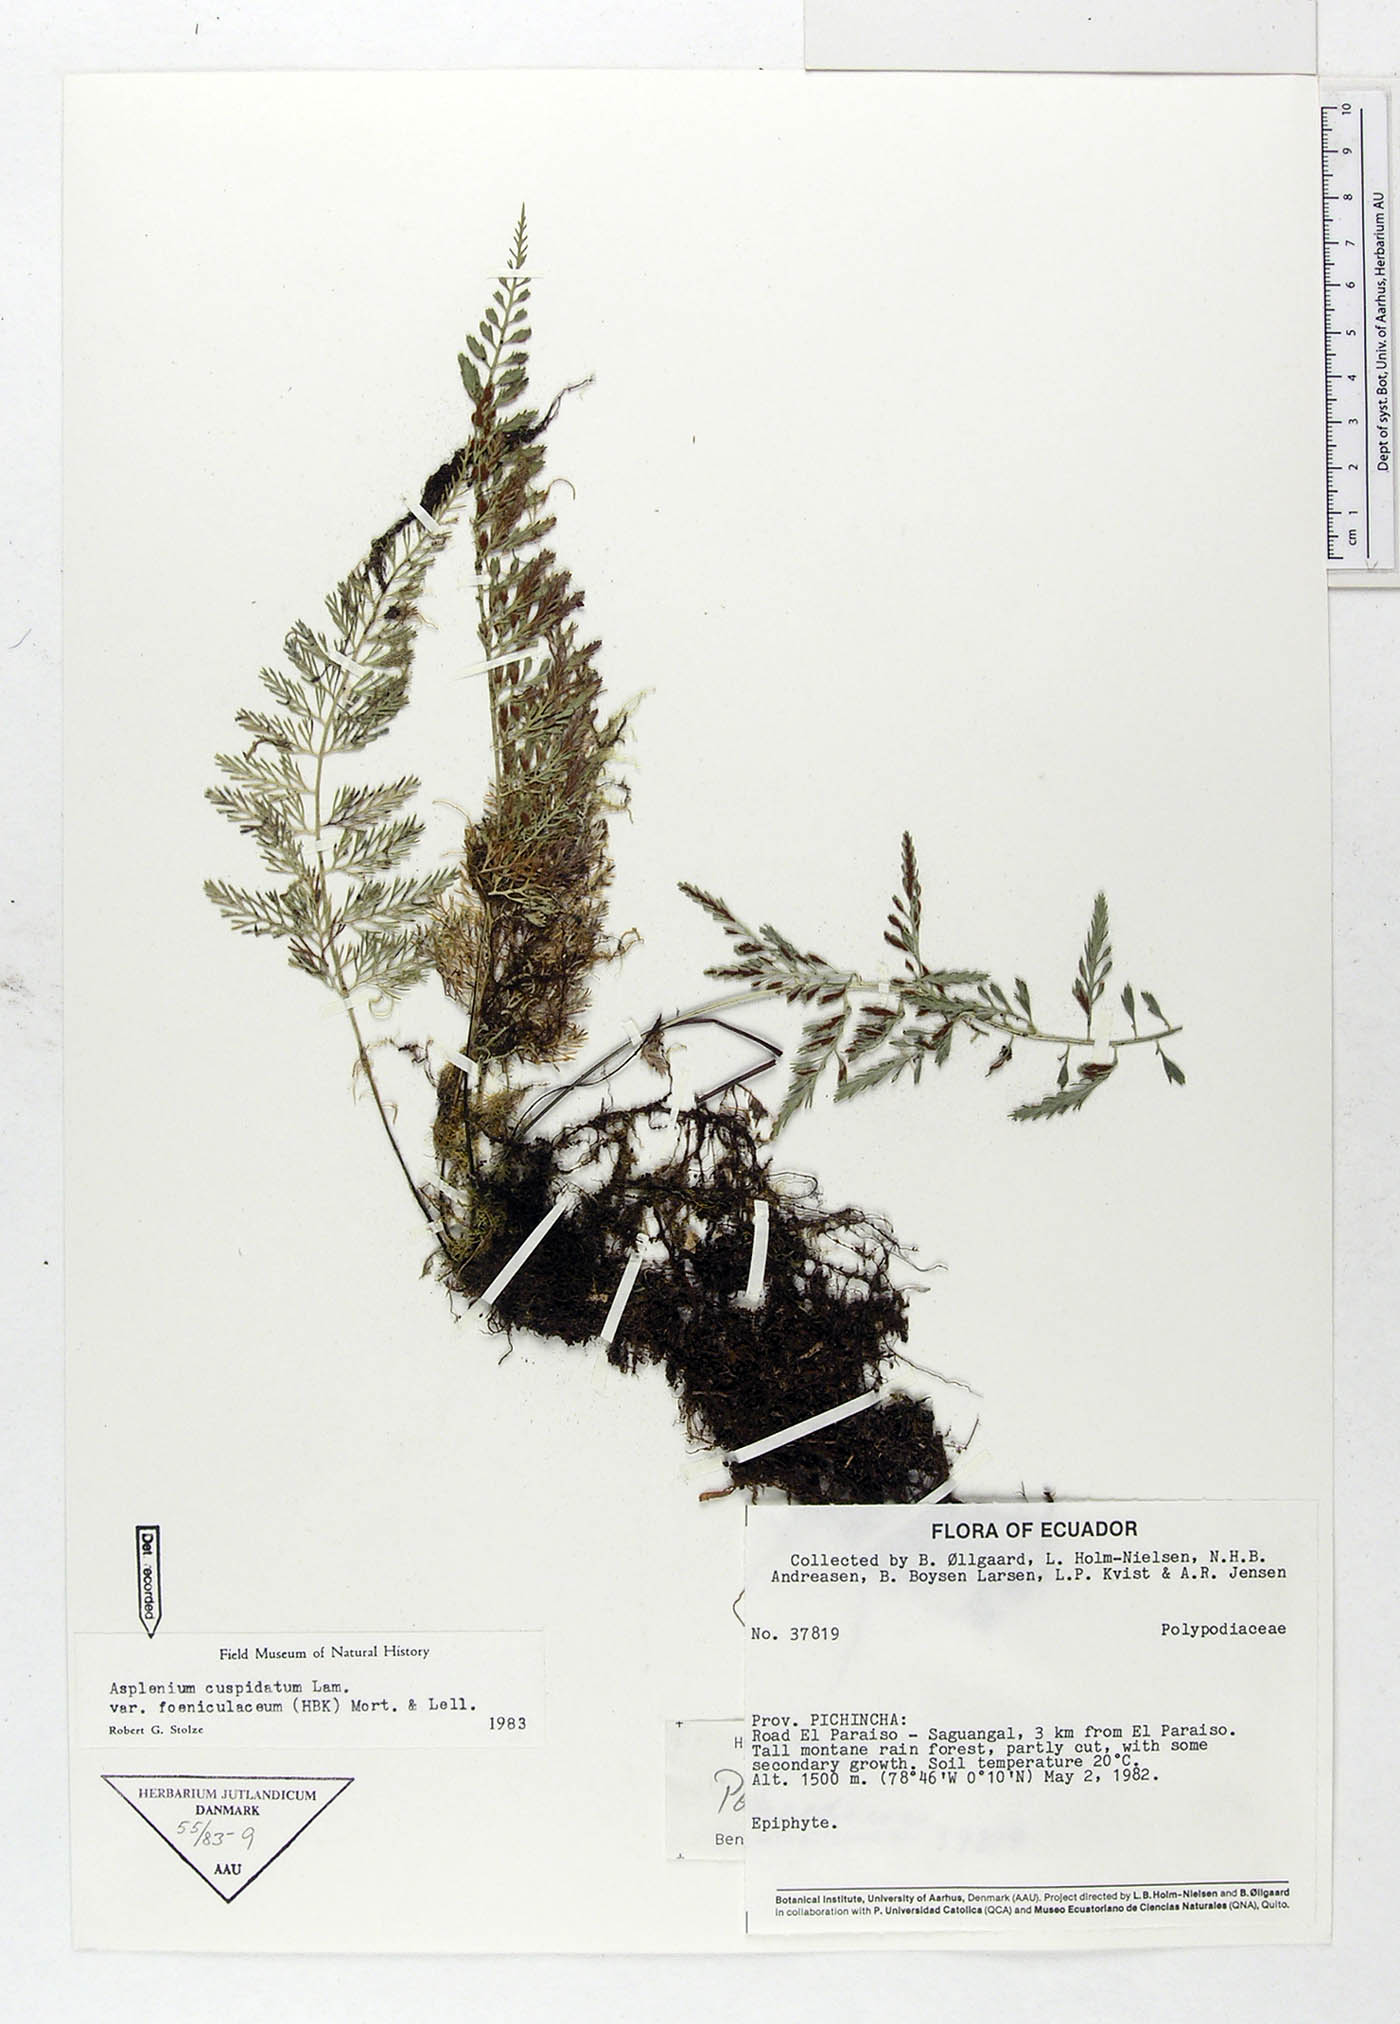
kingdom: Plantae
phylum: Tracheophyta
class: Polypodiopsida
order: Polypodiales
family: Aspleniaceae
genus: Asplenium
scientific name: Asplenium fragrans
